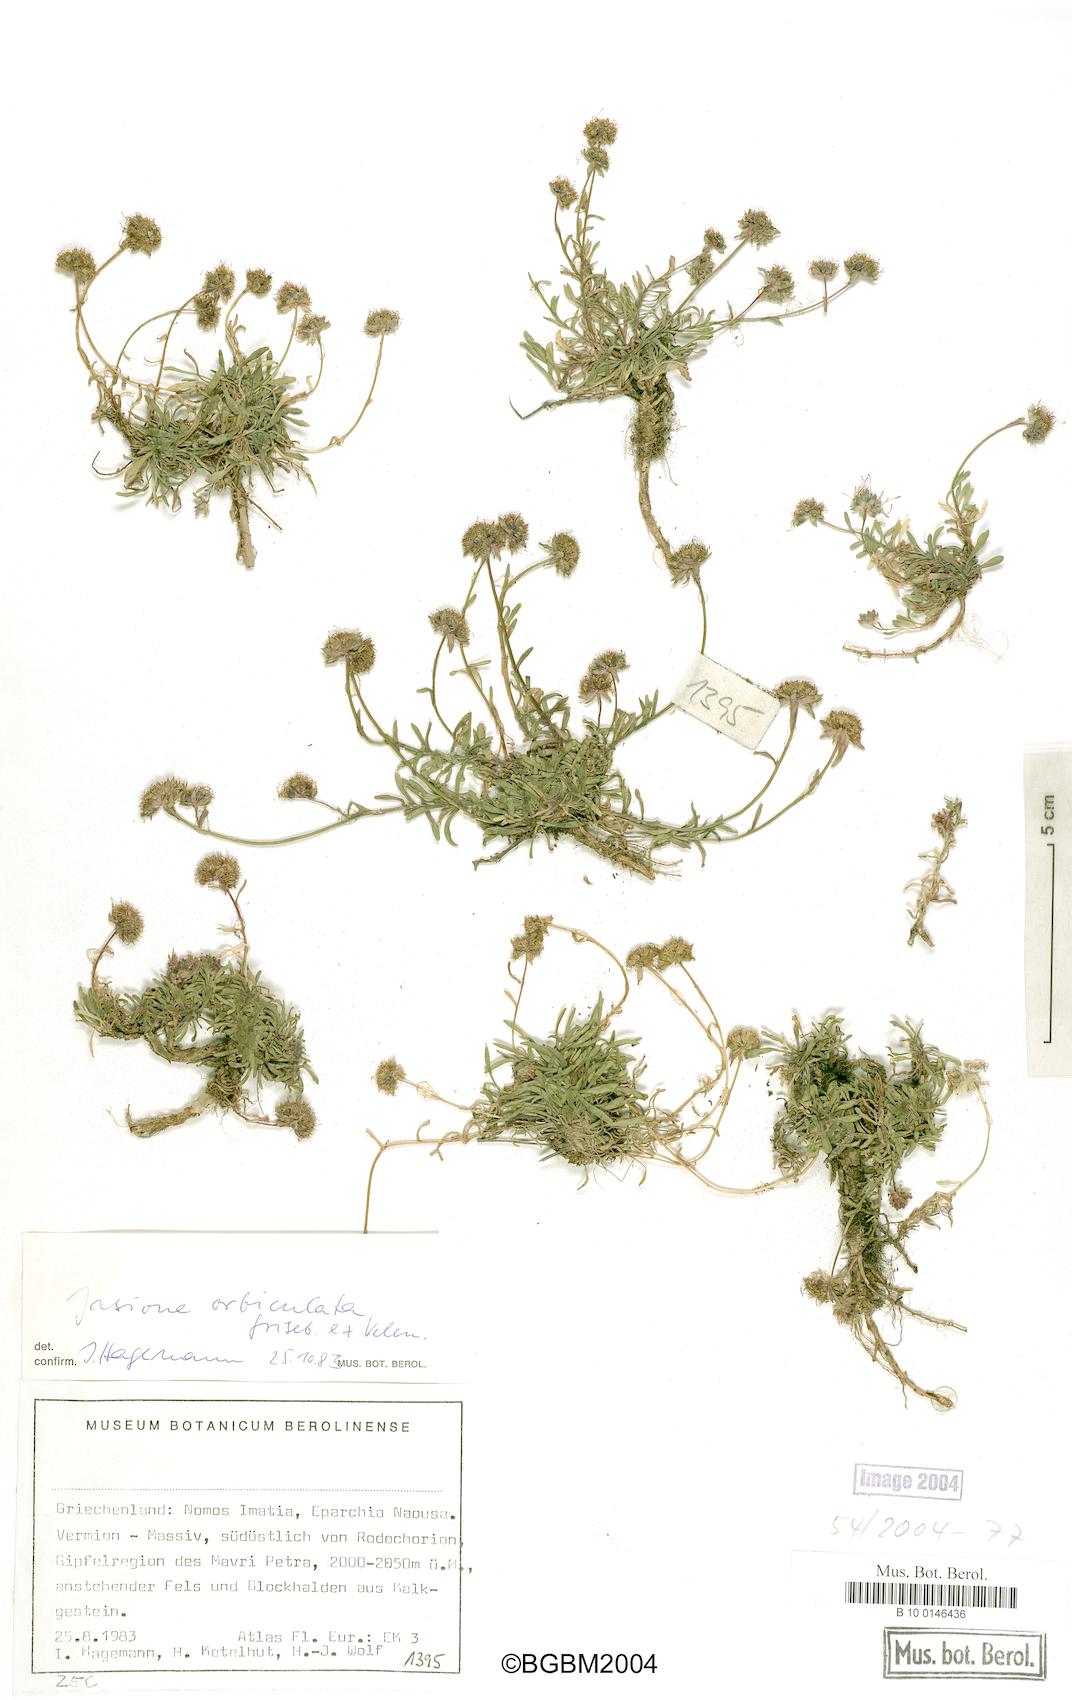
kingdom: Plantae
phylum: Tracheophyta
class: Magnoliopsida
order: Asterales
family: Campanulaceae
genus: Jasione
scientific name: Jasione orbiculata
